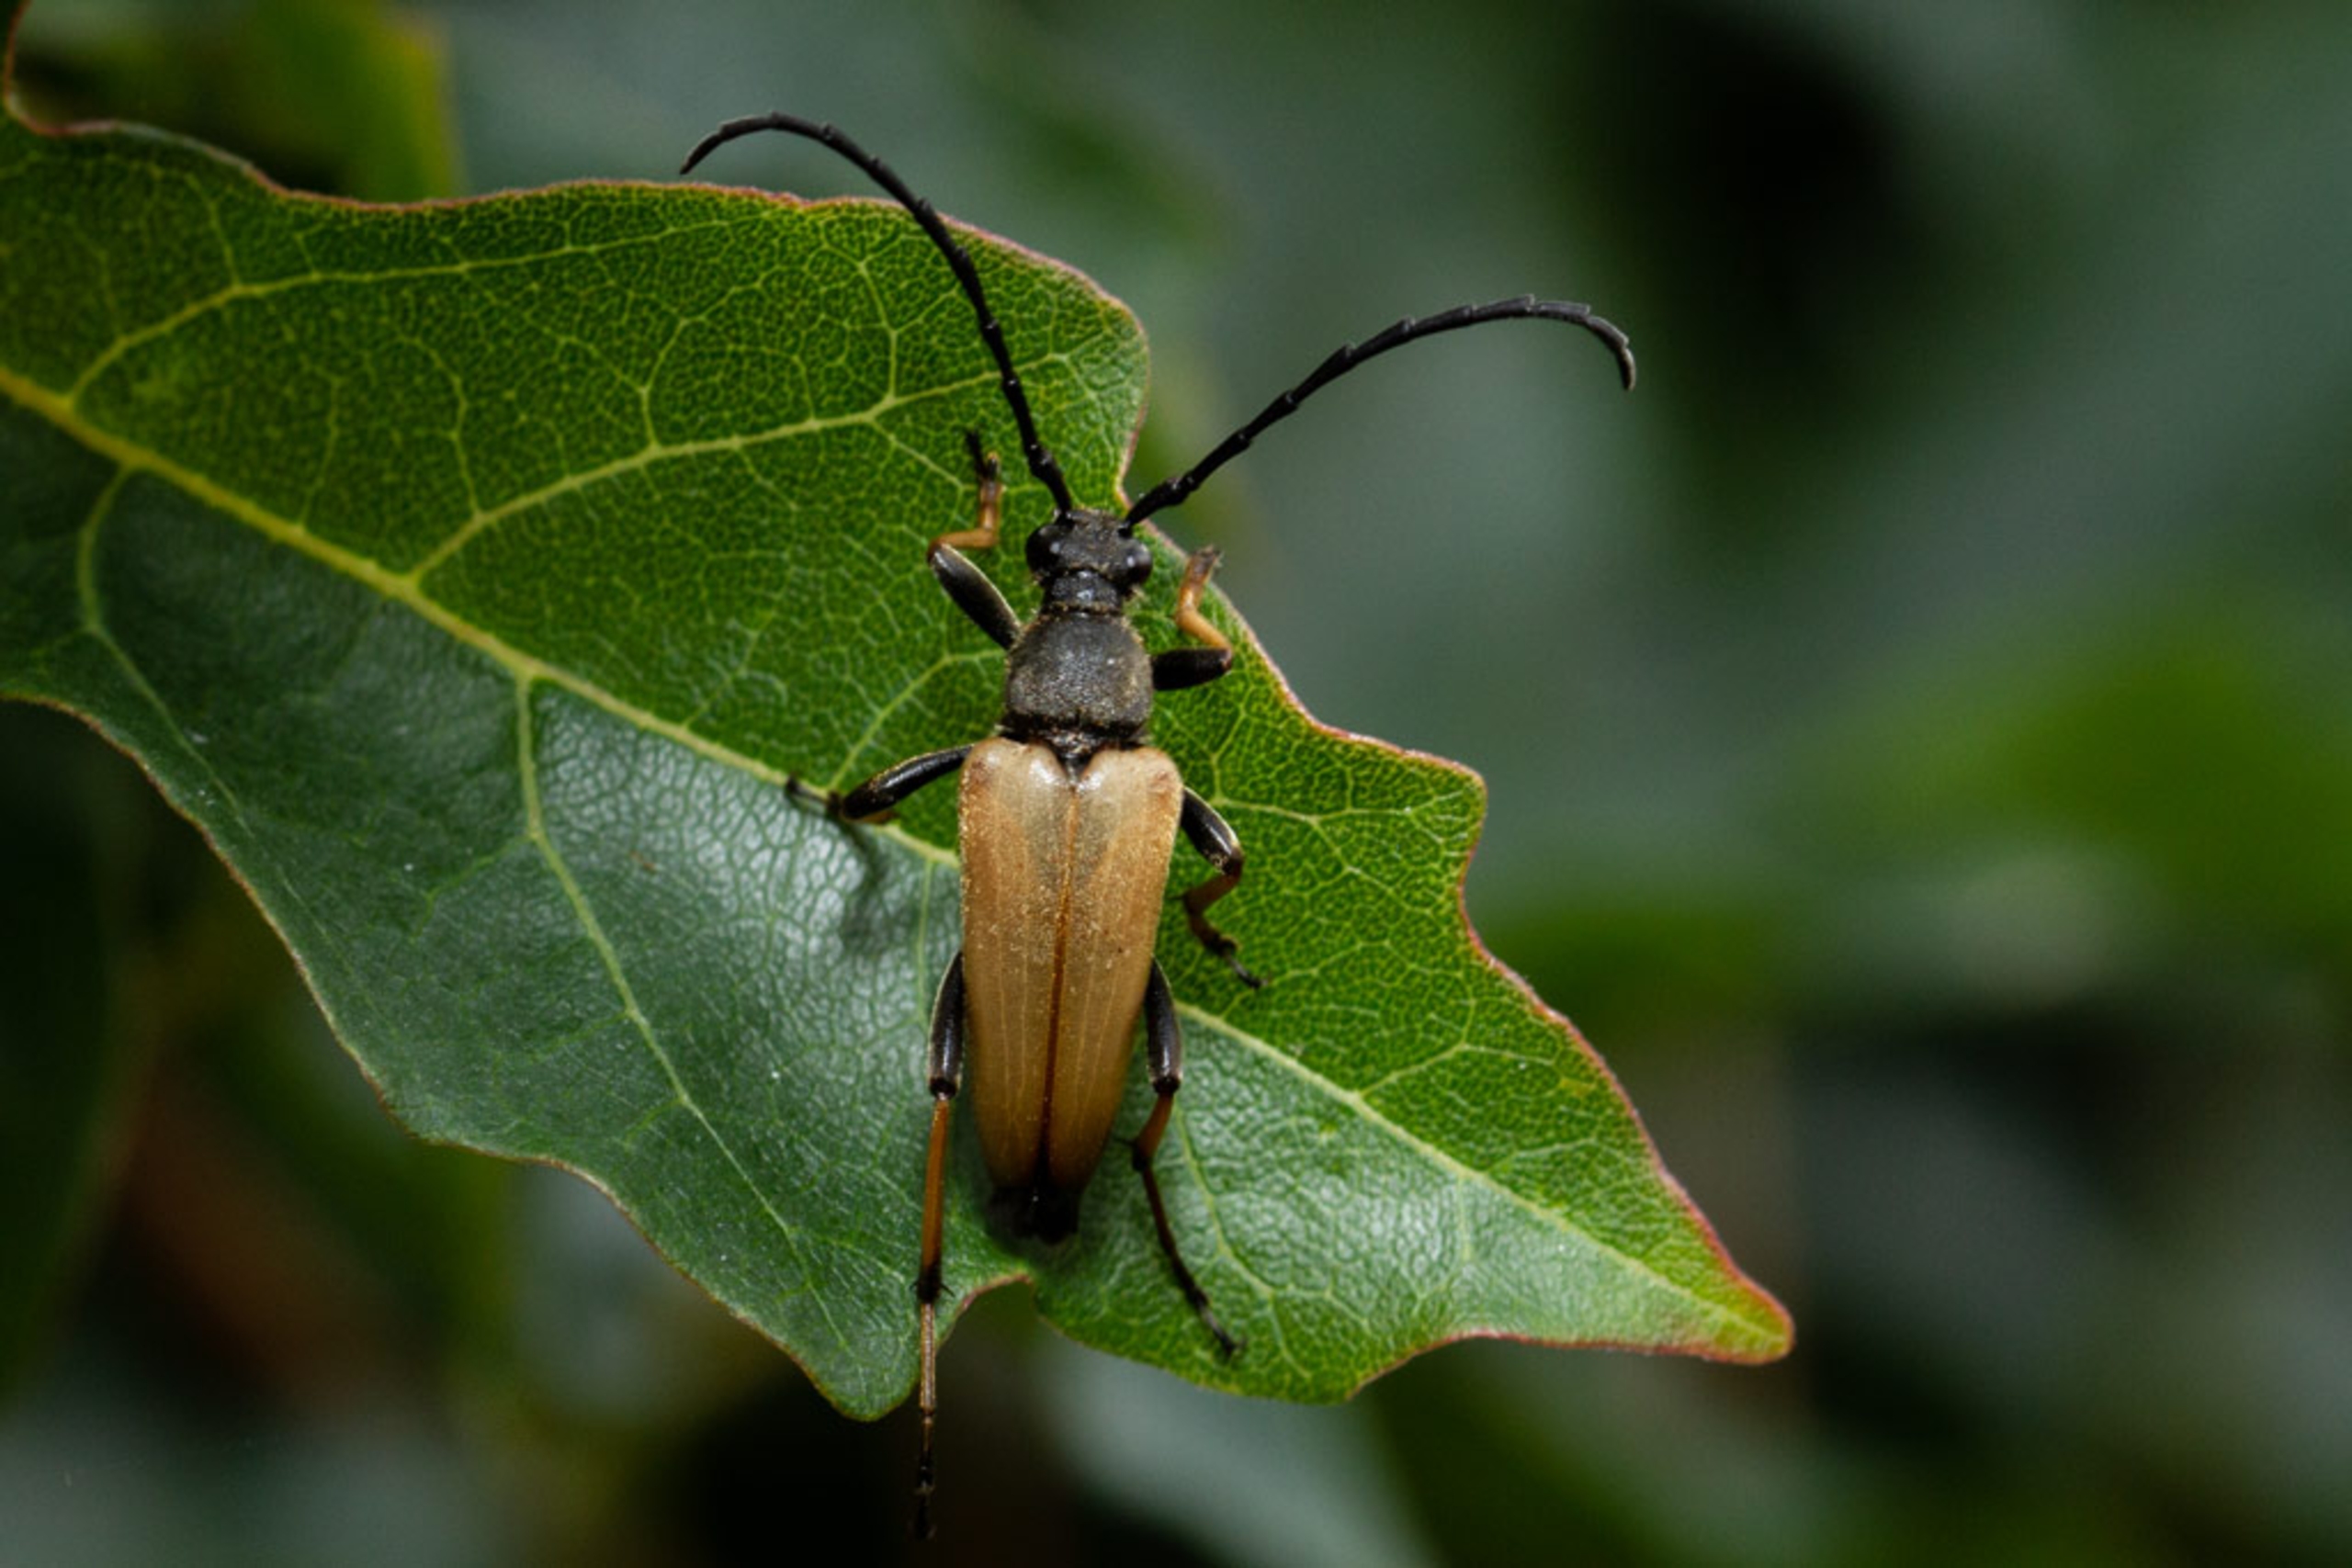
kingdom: Animalia
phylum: Arthropoda
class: Insecta
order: Coleoptera
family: Cerambycidae
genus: Stictoleptura
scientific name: Stictoleptura rubra
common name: Rød blomsterbuk
